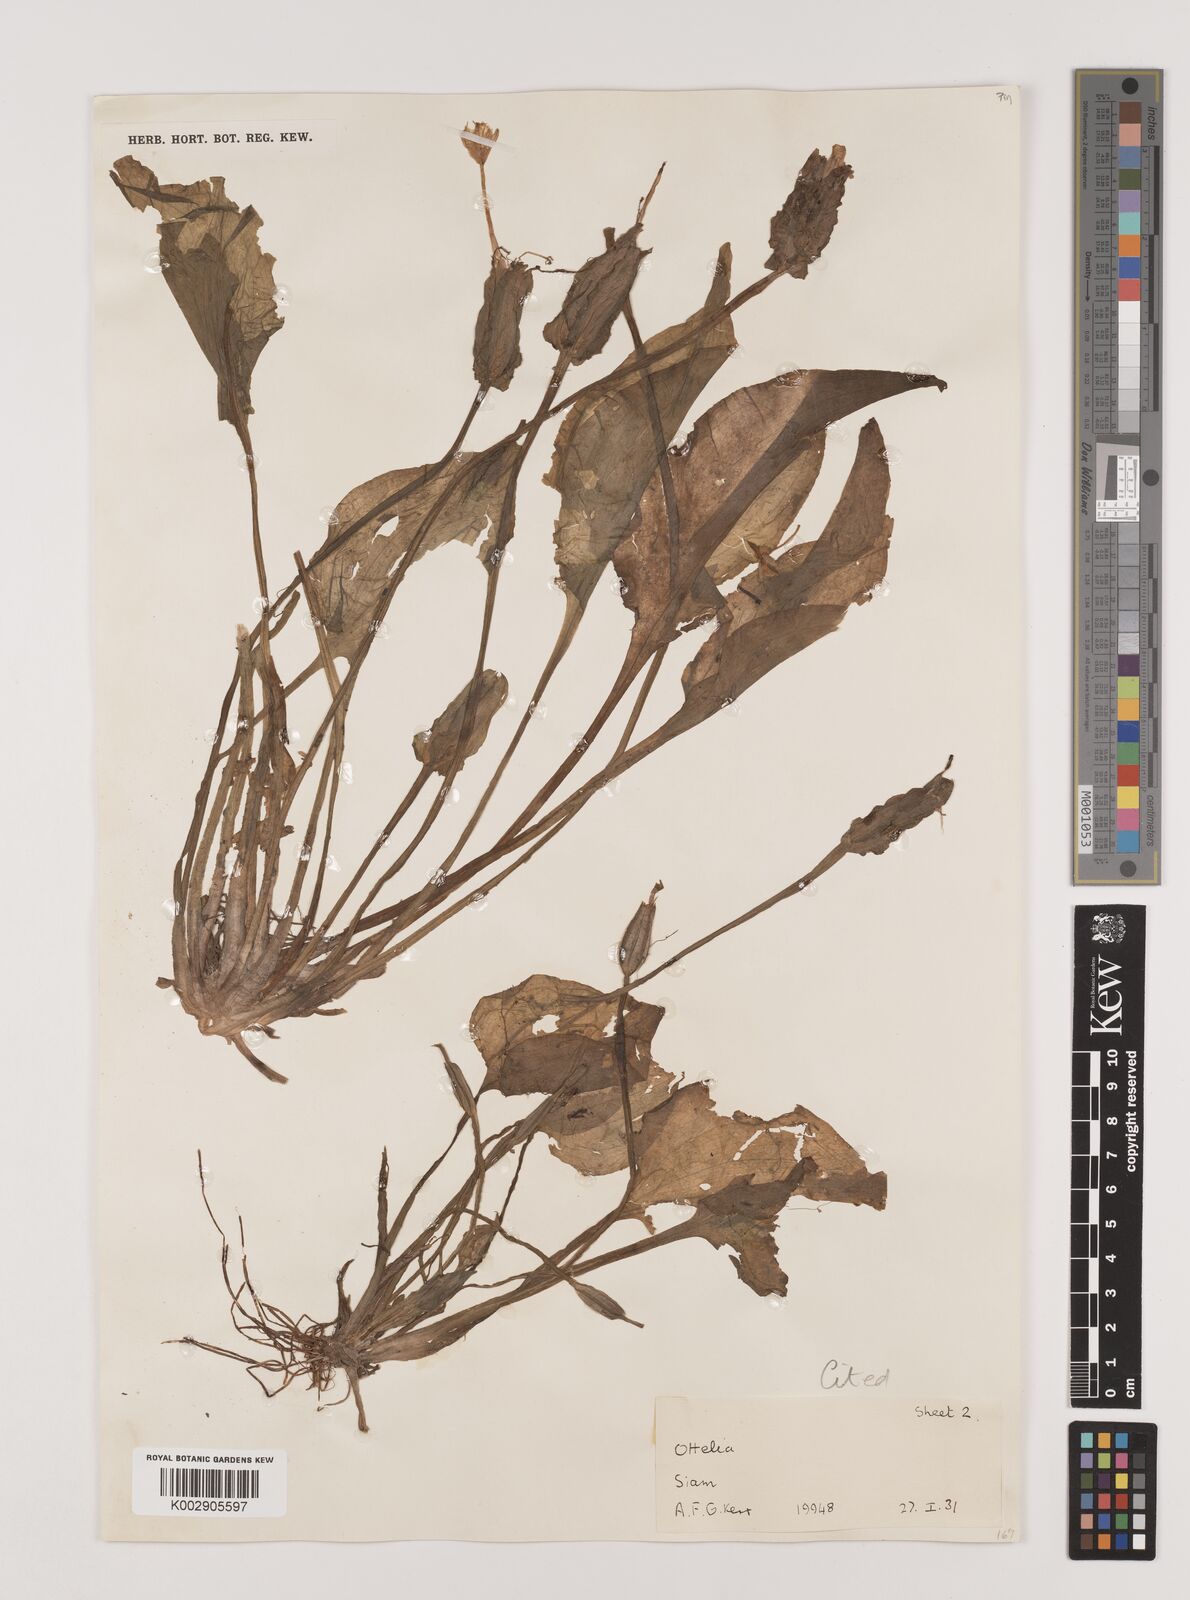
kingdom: Plantae
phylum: Tracheophyta
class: Liliopsida
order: Alismatales
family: Hydrocharitaceae
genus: Ottelia
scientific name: Ottelia alismoides
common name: Duck-lettuce
